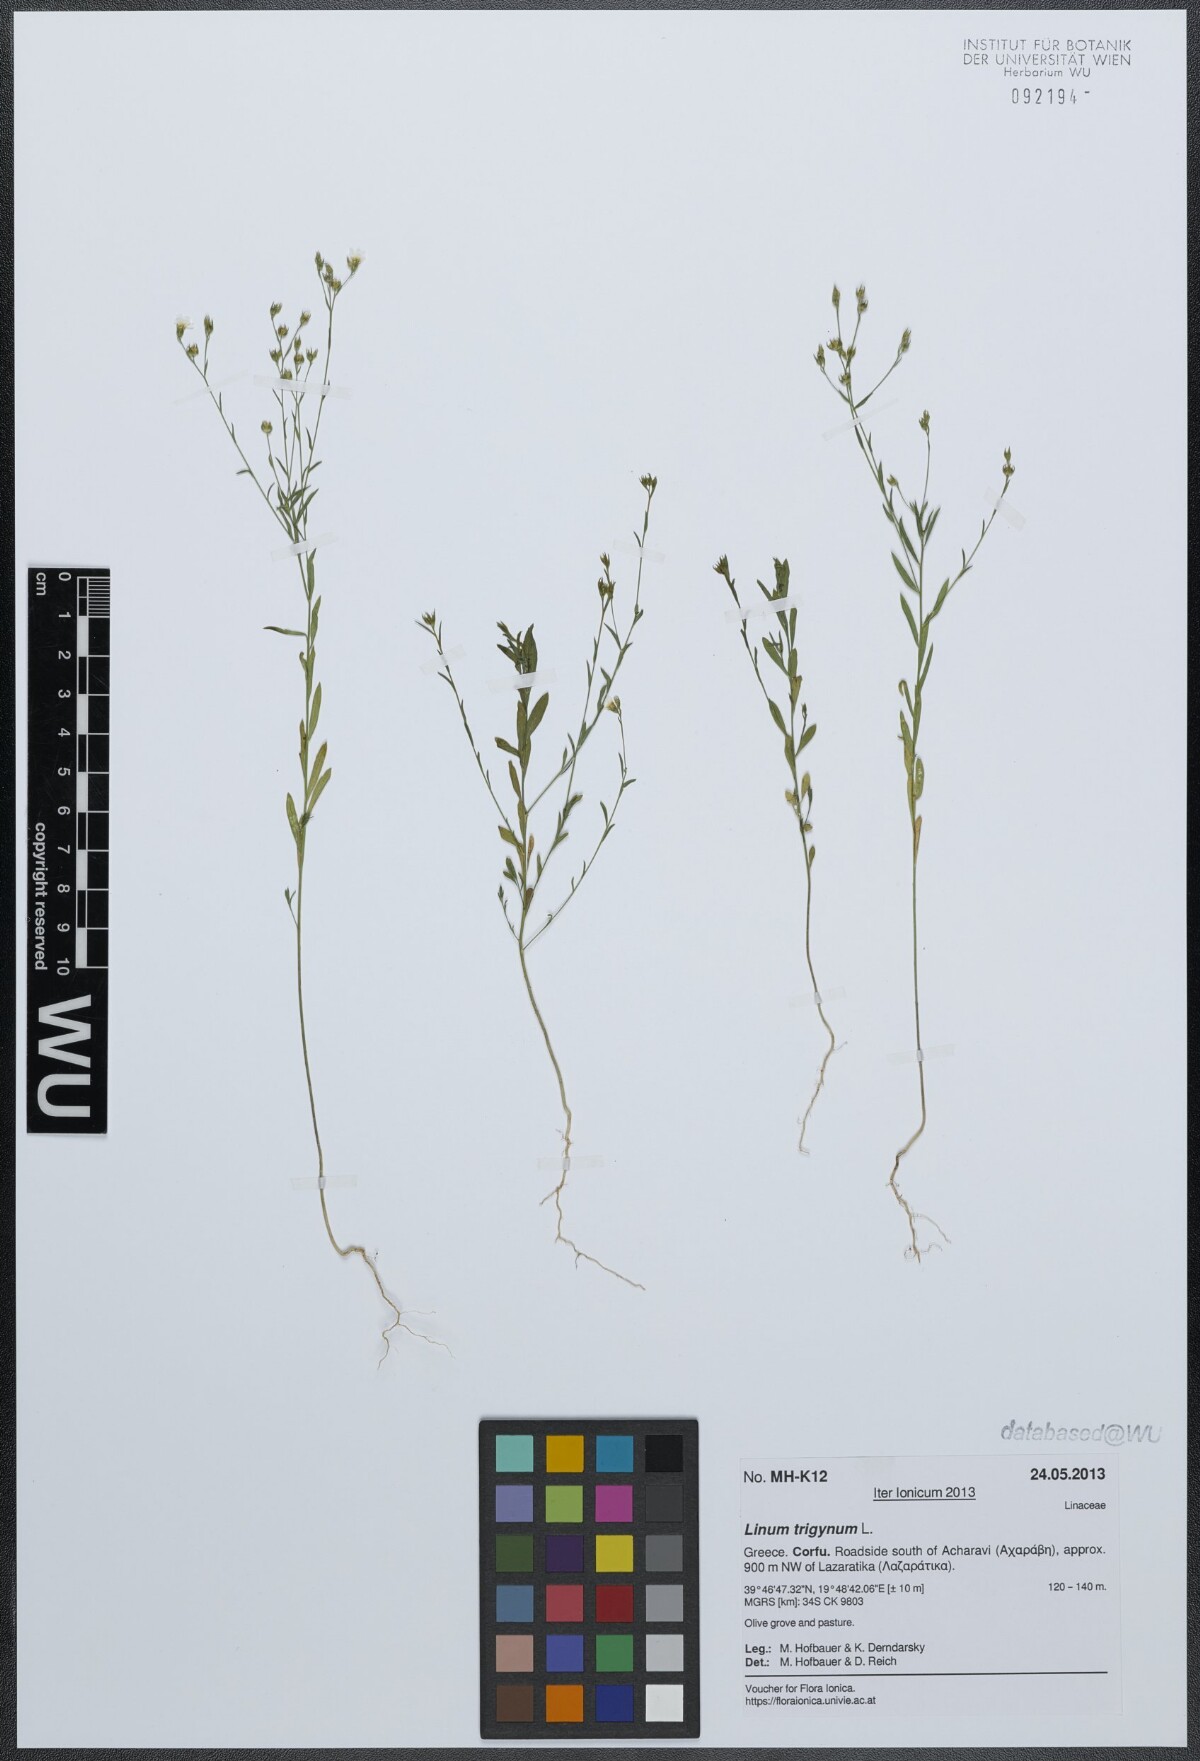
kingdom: Plantae
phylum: Tracheophyta
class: Magnoliopsida
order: Malpighiales
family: Linaceae
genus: Linum
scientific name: Linum trigynum
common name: French flax
